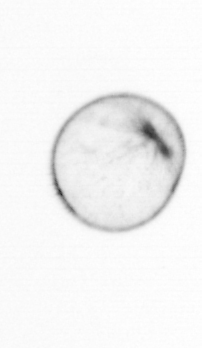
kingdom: Chromista
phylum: Myzozoa
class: Dinophyceae
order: Noctilucales
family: Noctilucaceae
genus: Noctiluca
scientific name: Noctiluca scintillans
